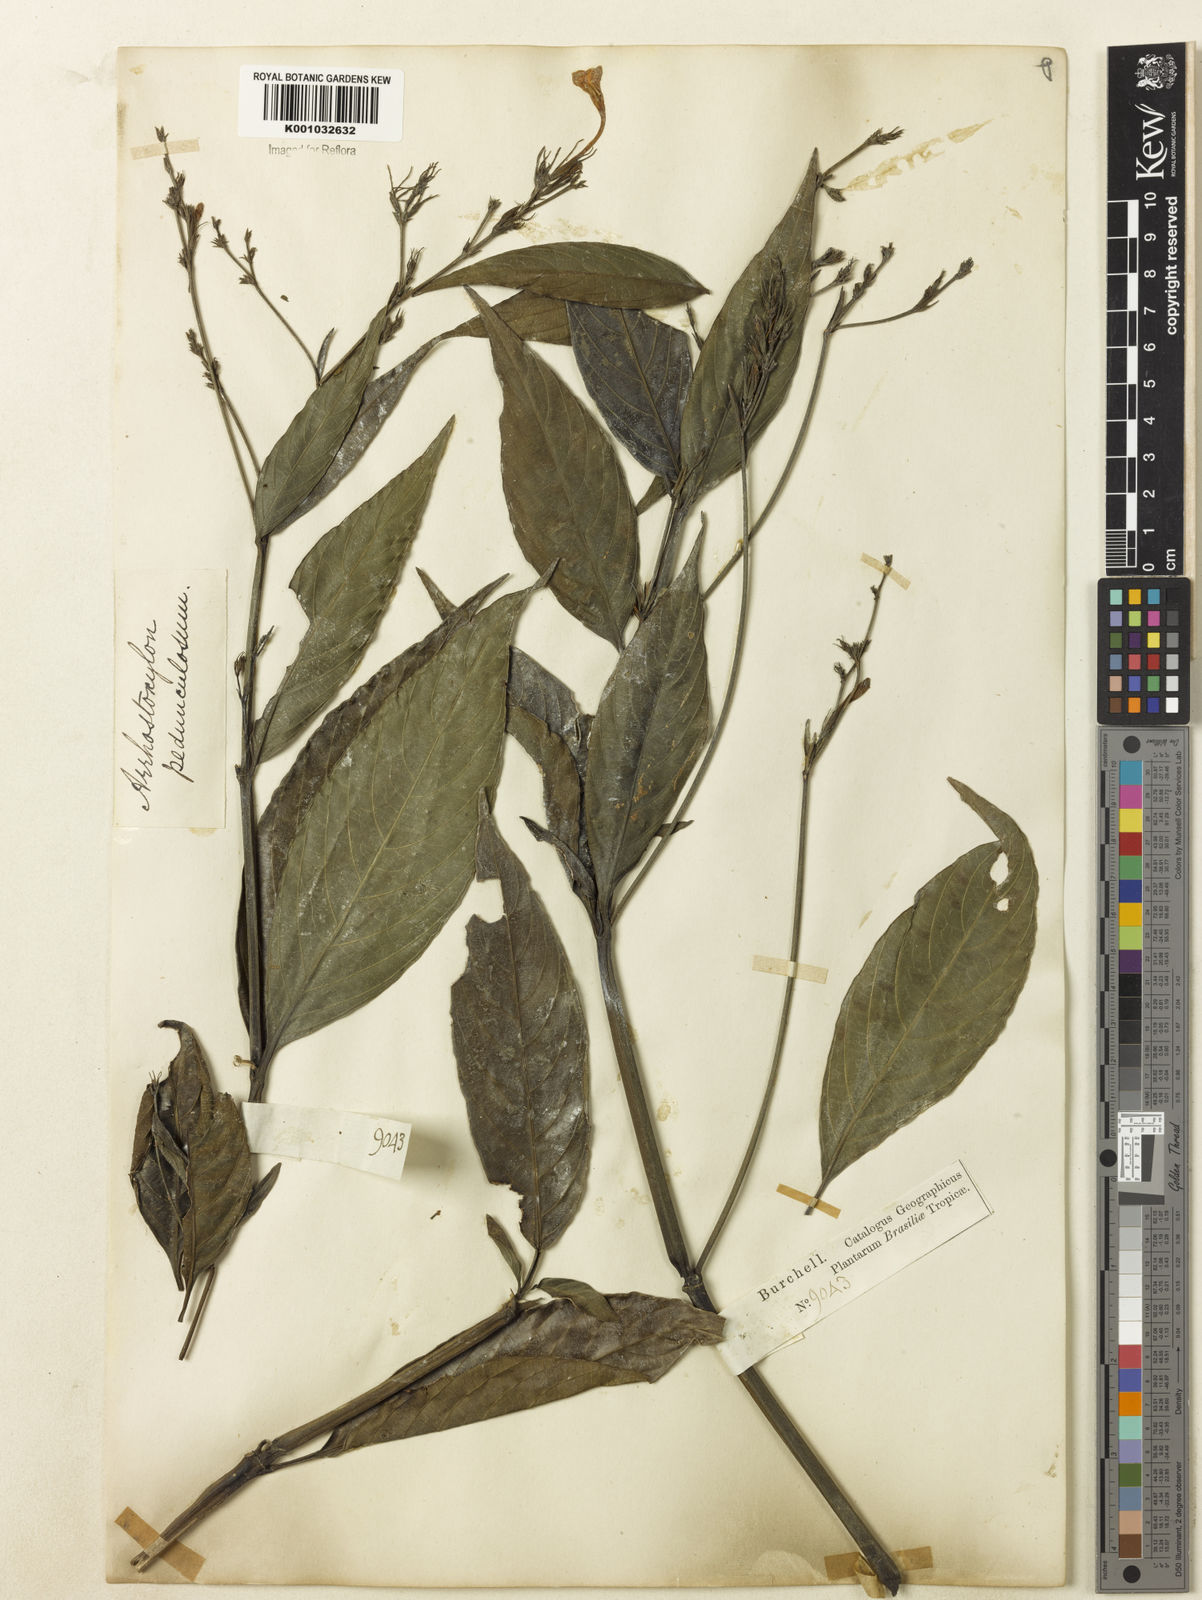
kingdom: Plantae
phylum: Tracheophyta
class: Magnoliopsida
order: Lamiales
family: Acanthaceae
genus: Ruellia
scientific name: Ruellia pedunculata
